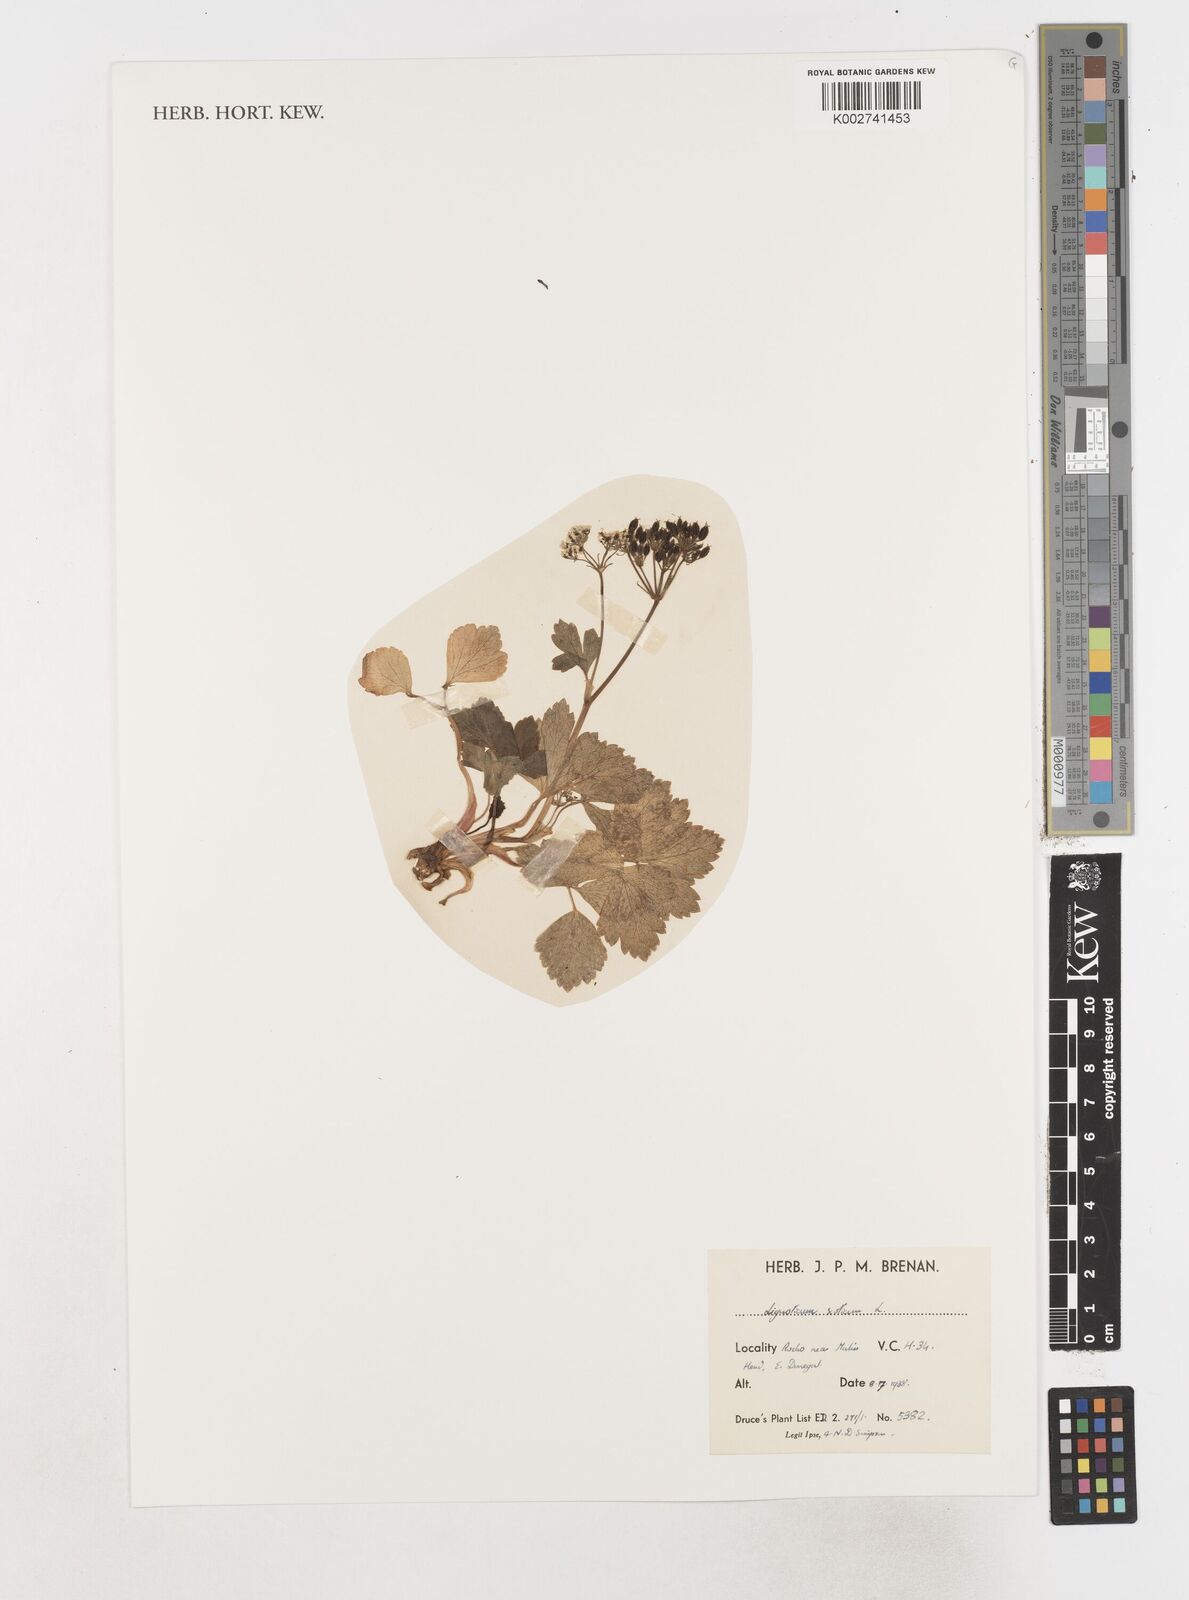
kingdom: Plantae
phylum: Tracheophyta
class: Magnoliopsida
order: Apiales
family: Apiaceae
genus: Ligusticum
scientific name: Ligusticum scothicum
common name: Beach lovage
